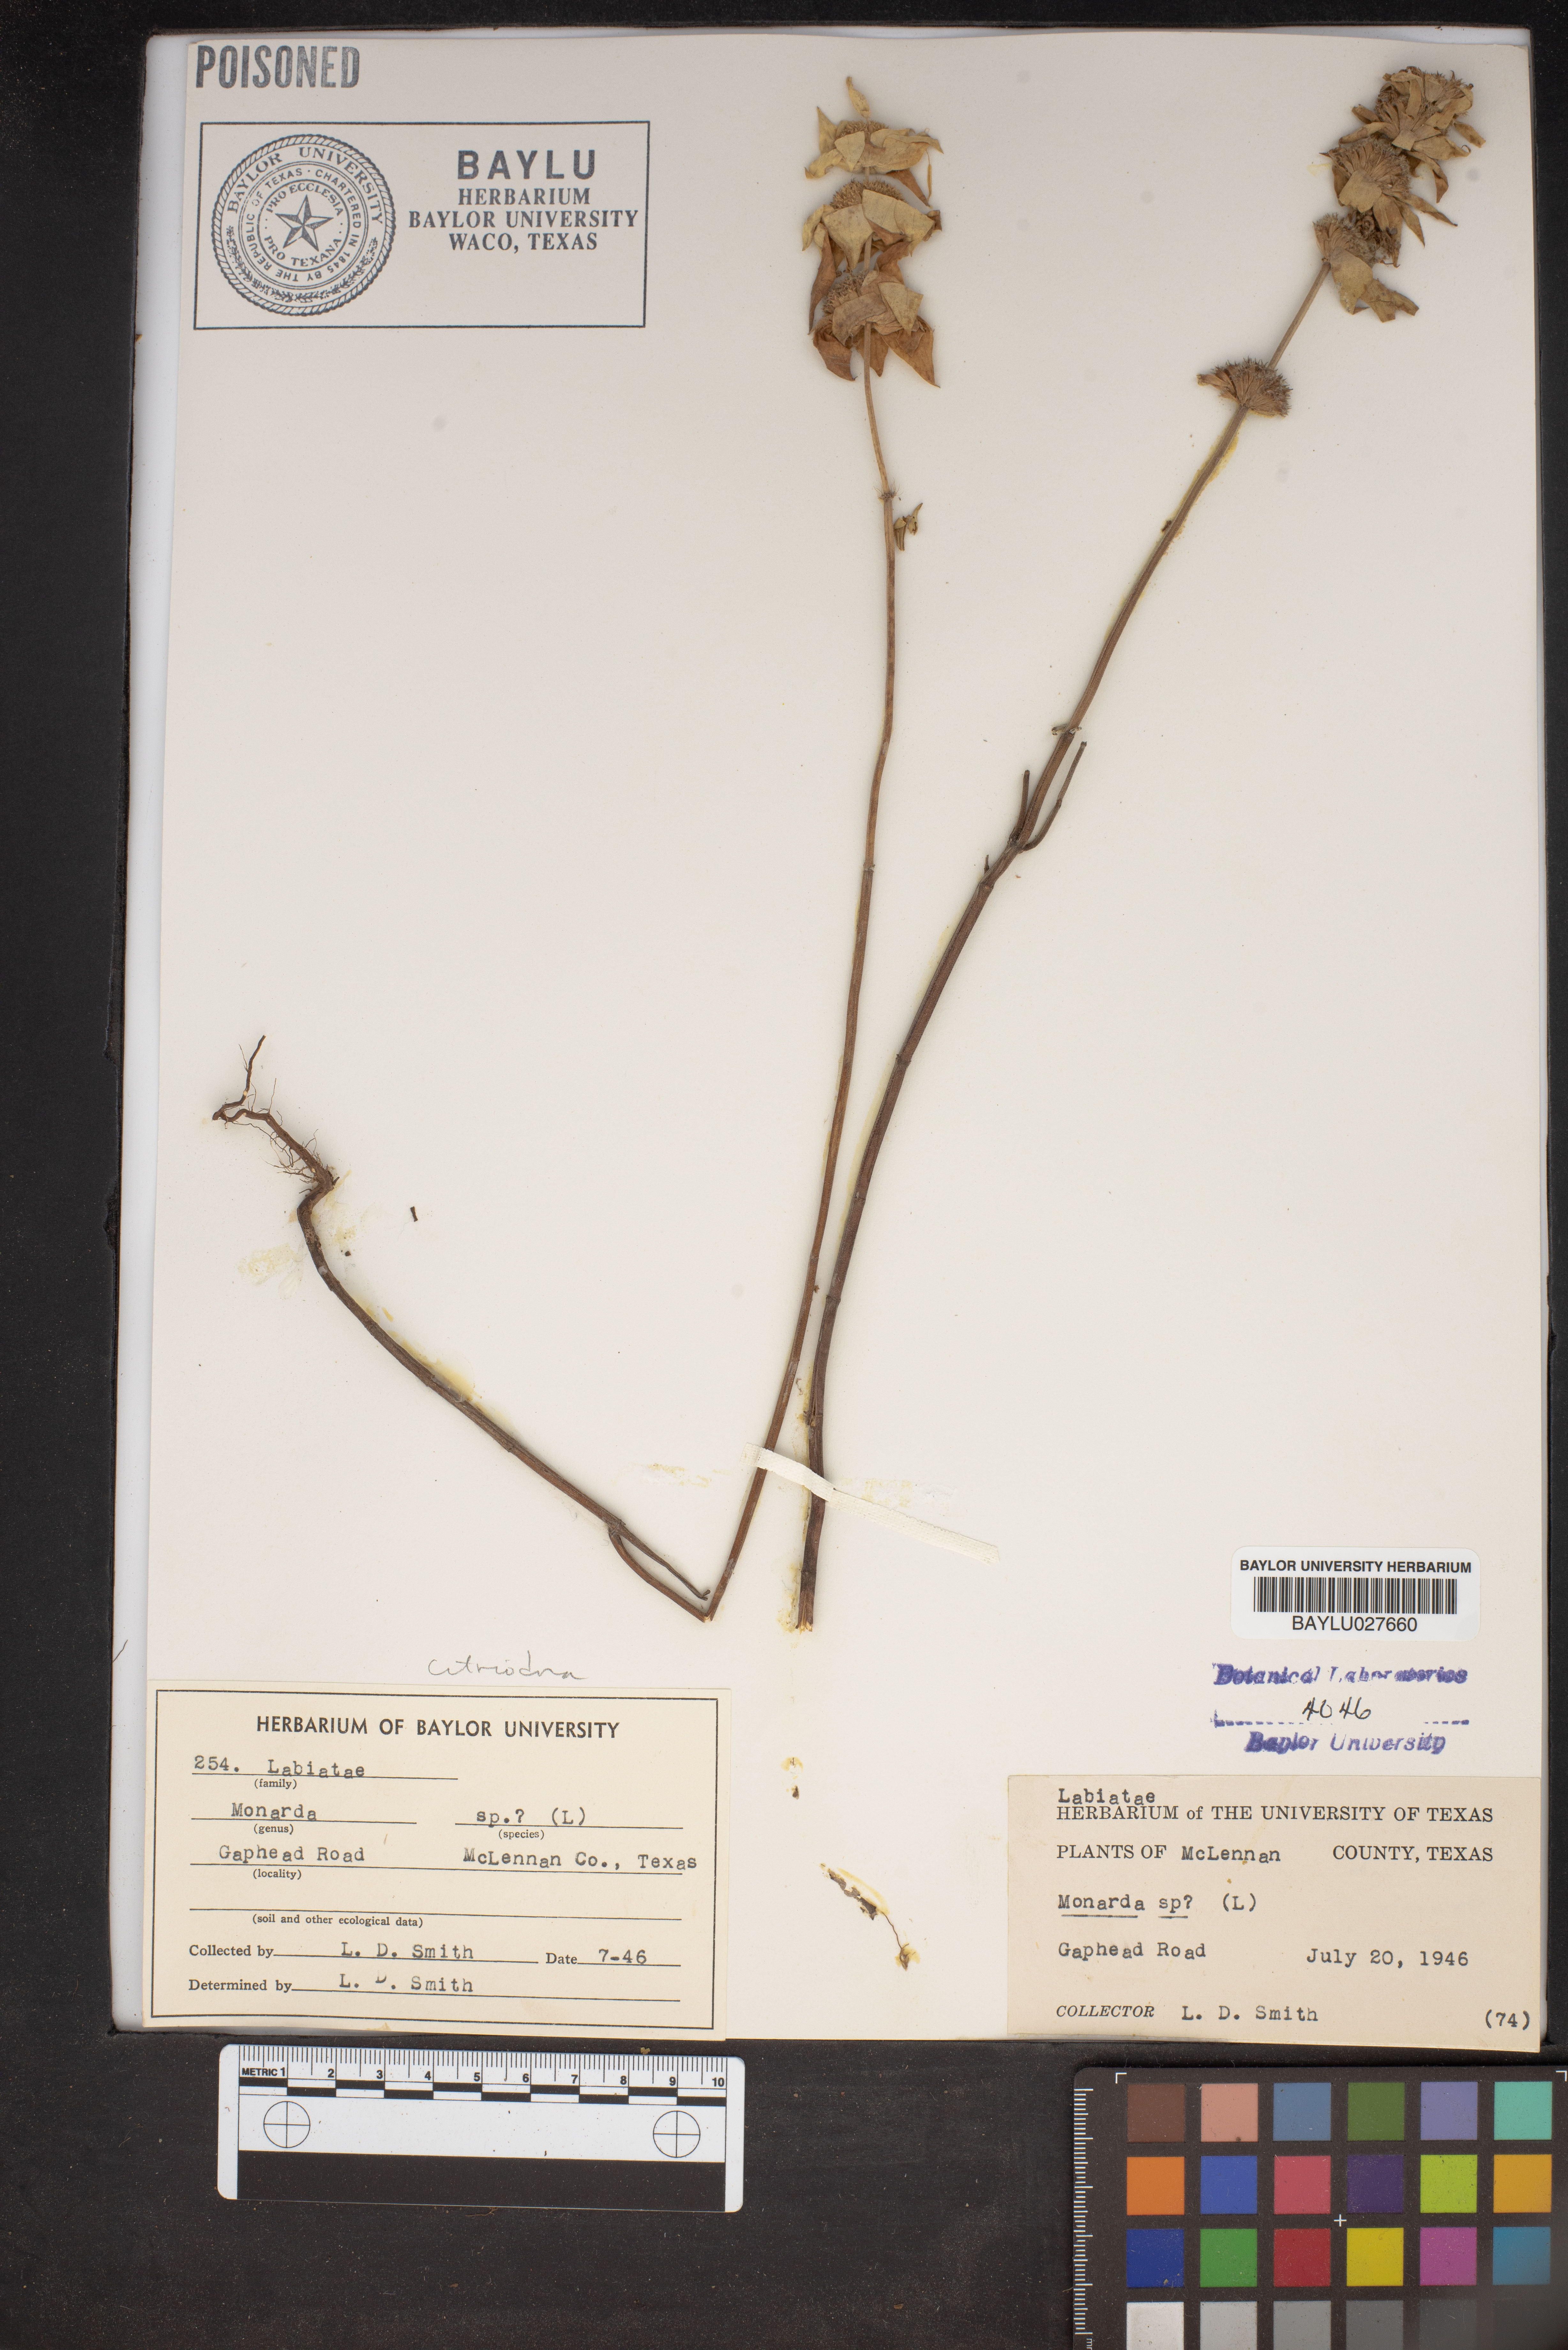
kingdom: Plantae
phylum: Tracheophyta
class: Magnoliopsida
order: Lamiales
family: Lamiaceae
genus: Monarda
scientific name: Monarda
